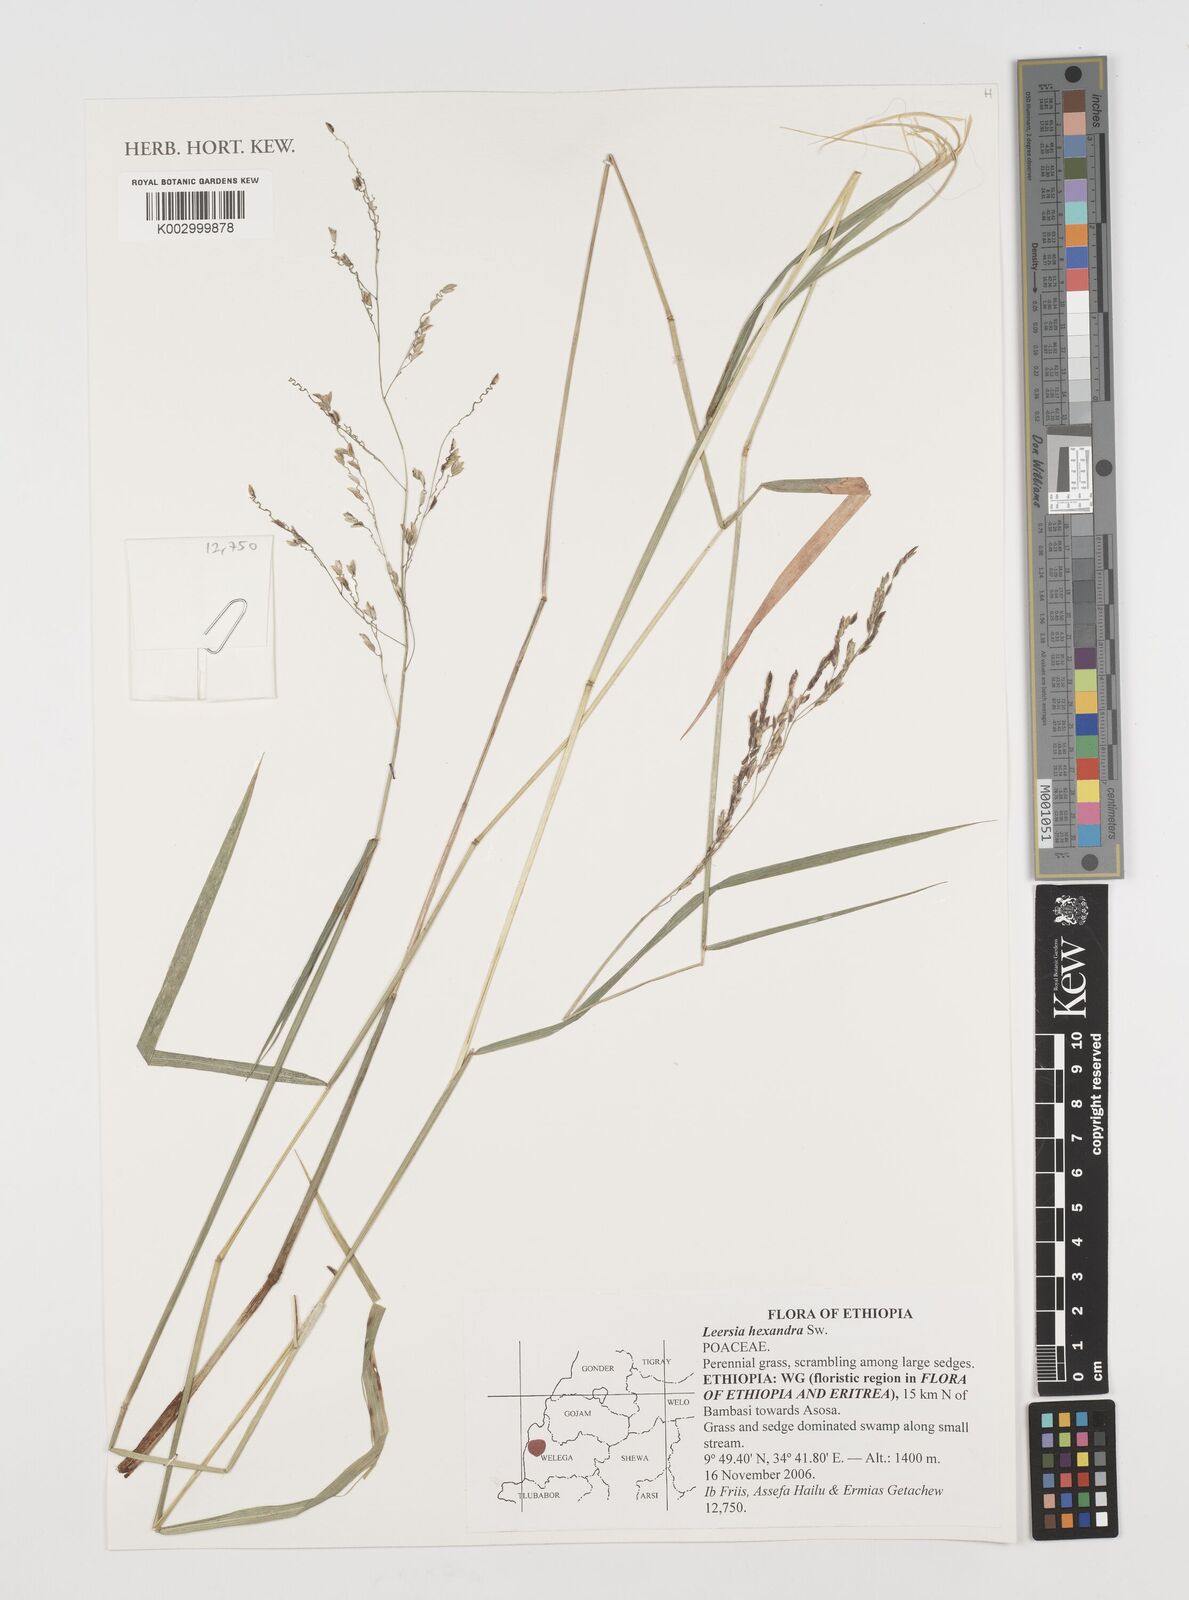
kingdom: Plantae
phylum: Tracheophyta
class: Liliopsida
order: Poales
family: Poaceae
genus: Leersia
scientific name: Leersia hexandra
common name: Southern cut grass
